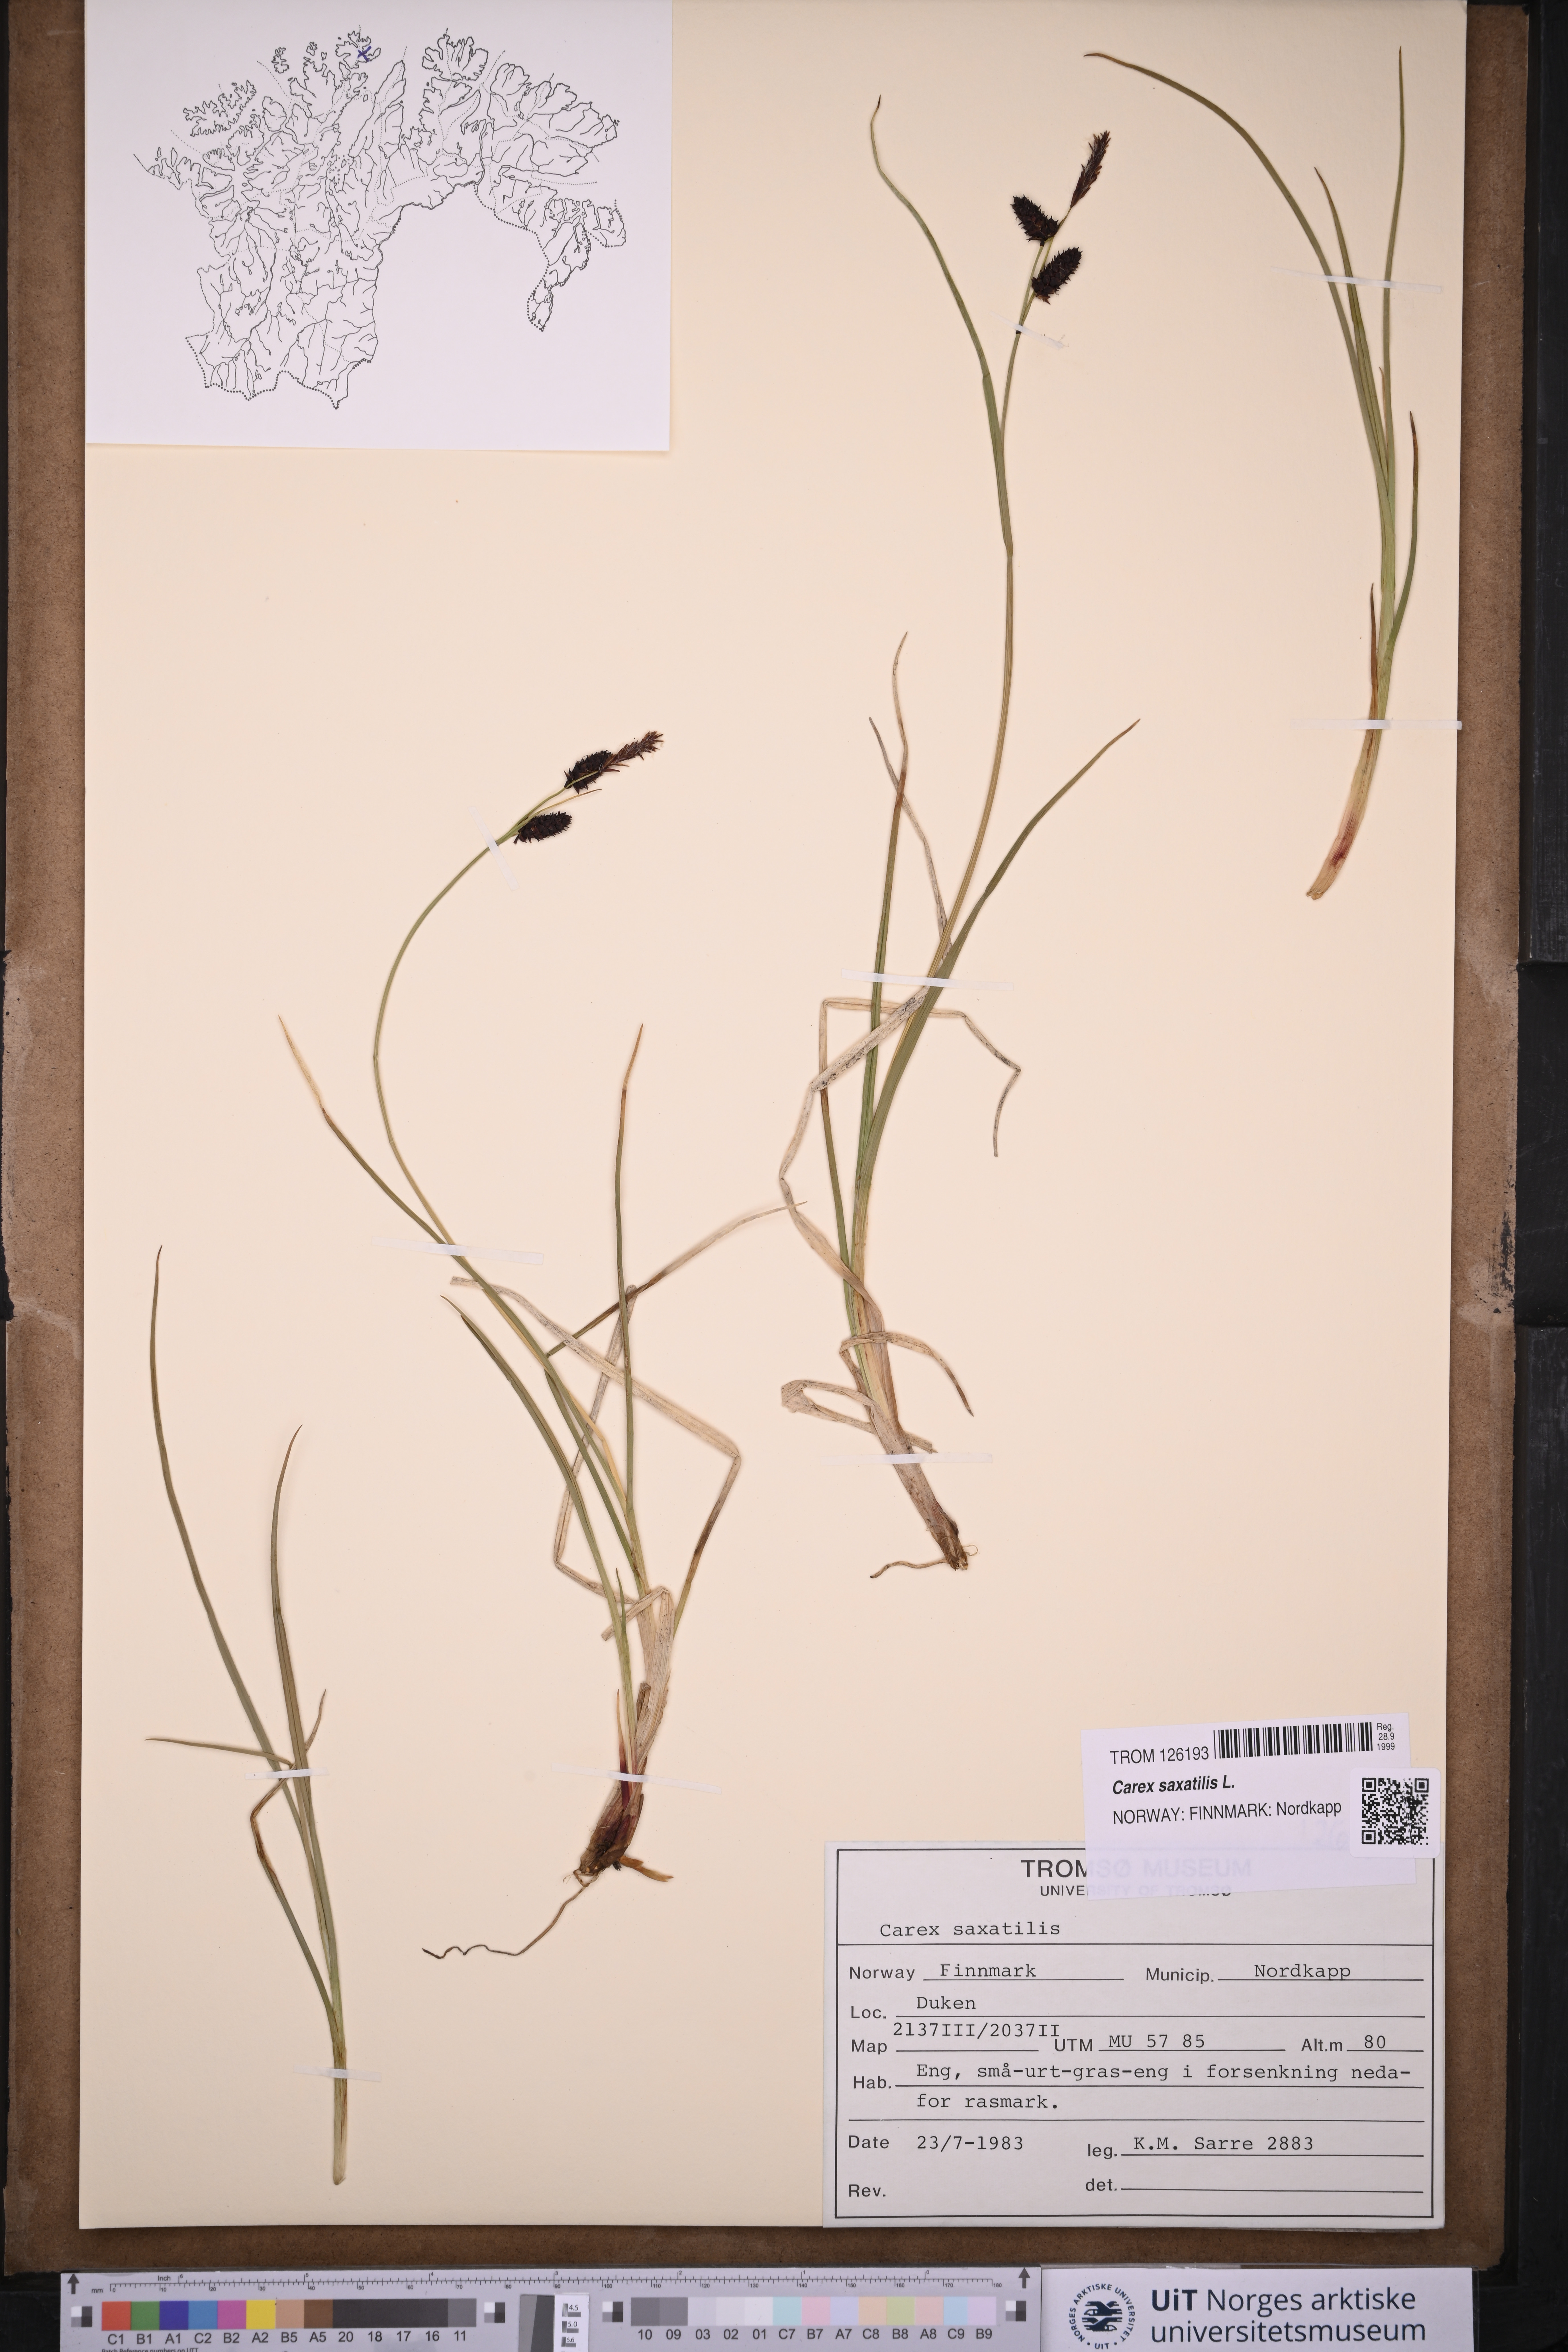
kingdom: Plantae
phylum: Tracheophyta
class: Liliopsida
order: Poales
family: Cyperaceae
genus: Carex
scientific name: Carex saxatilis
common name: Russet sedge
